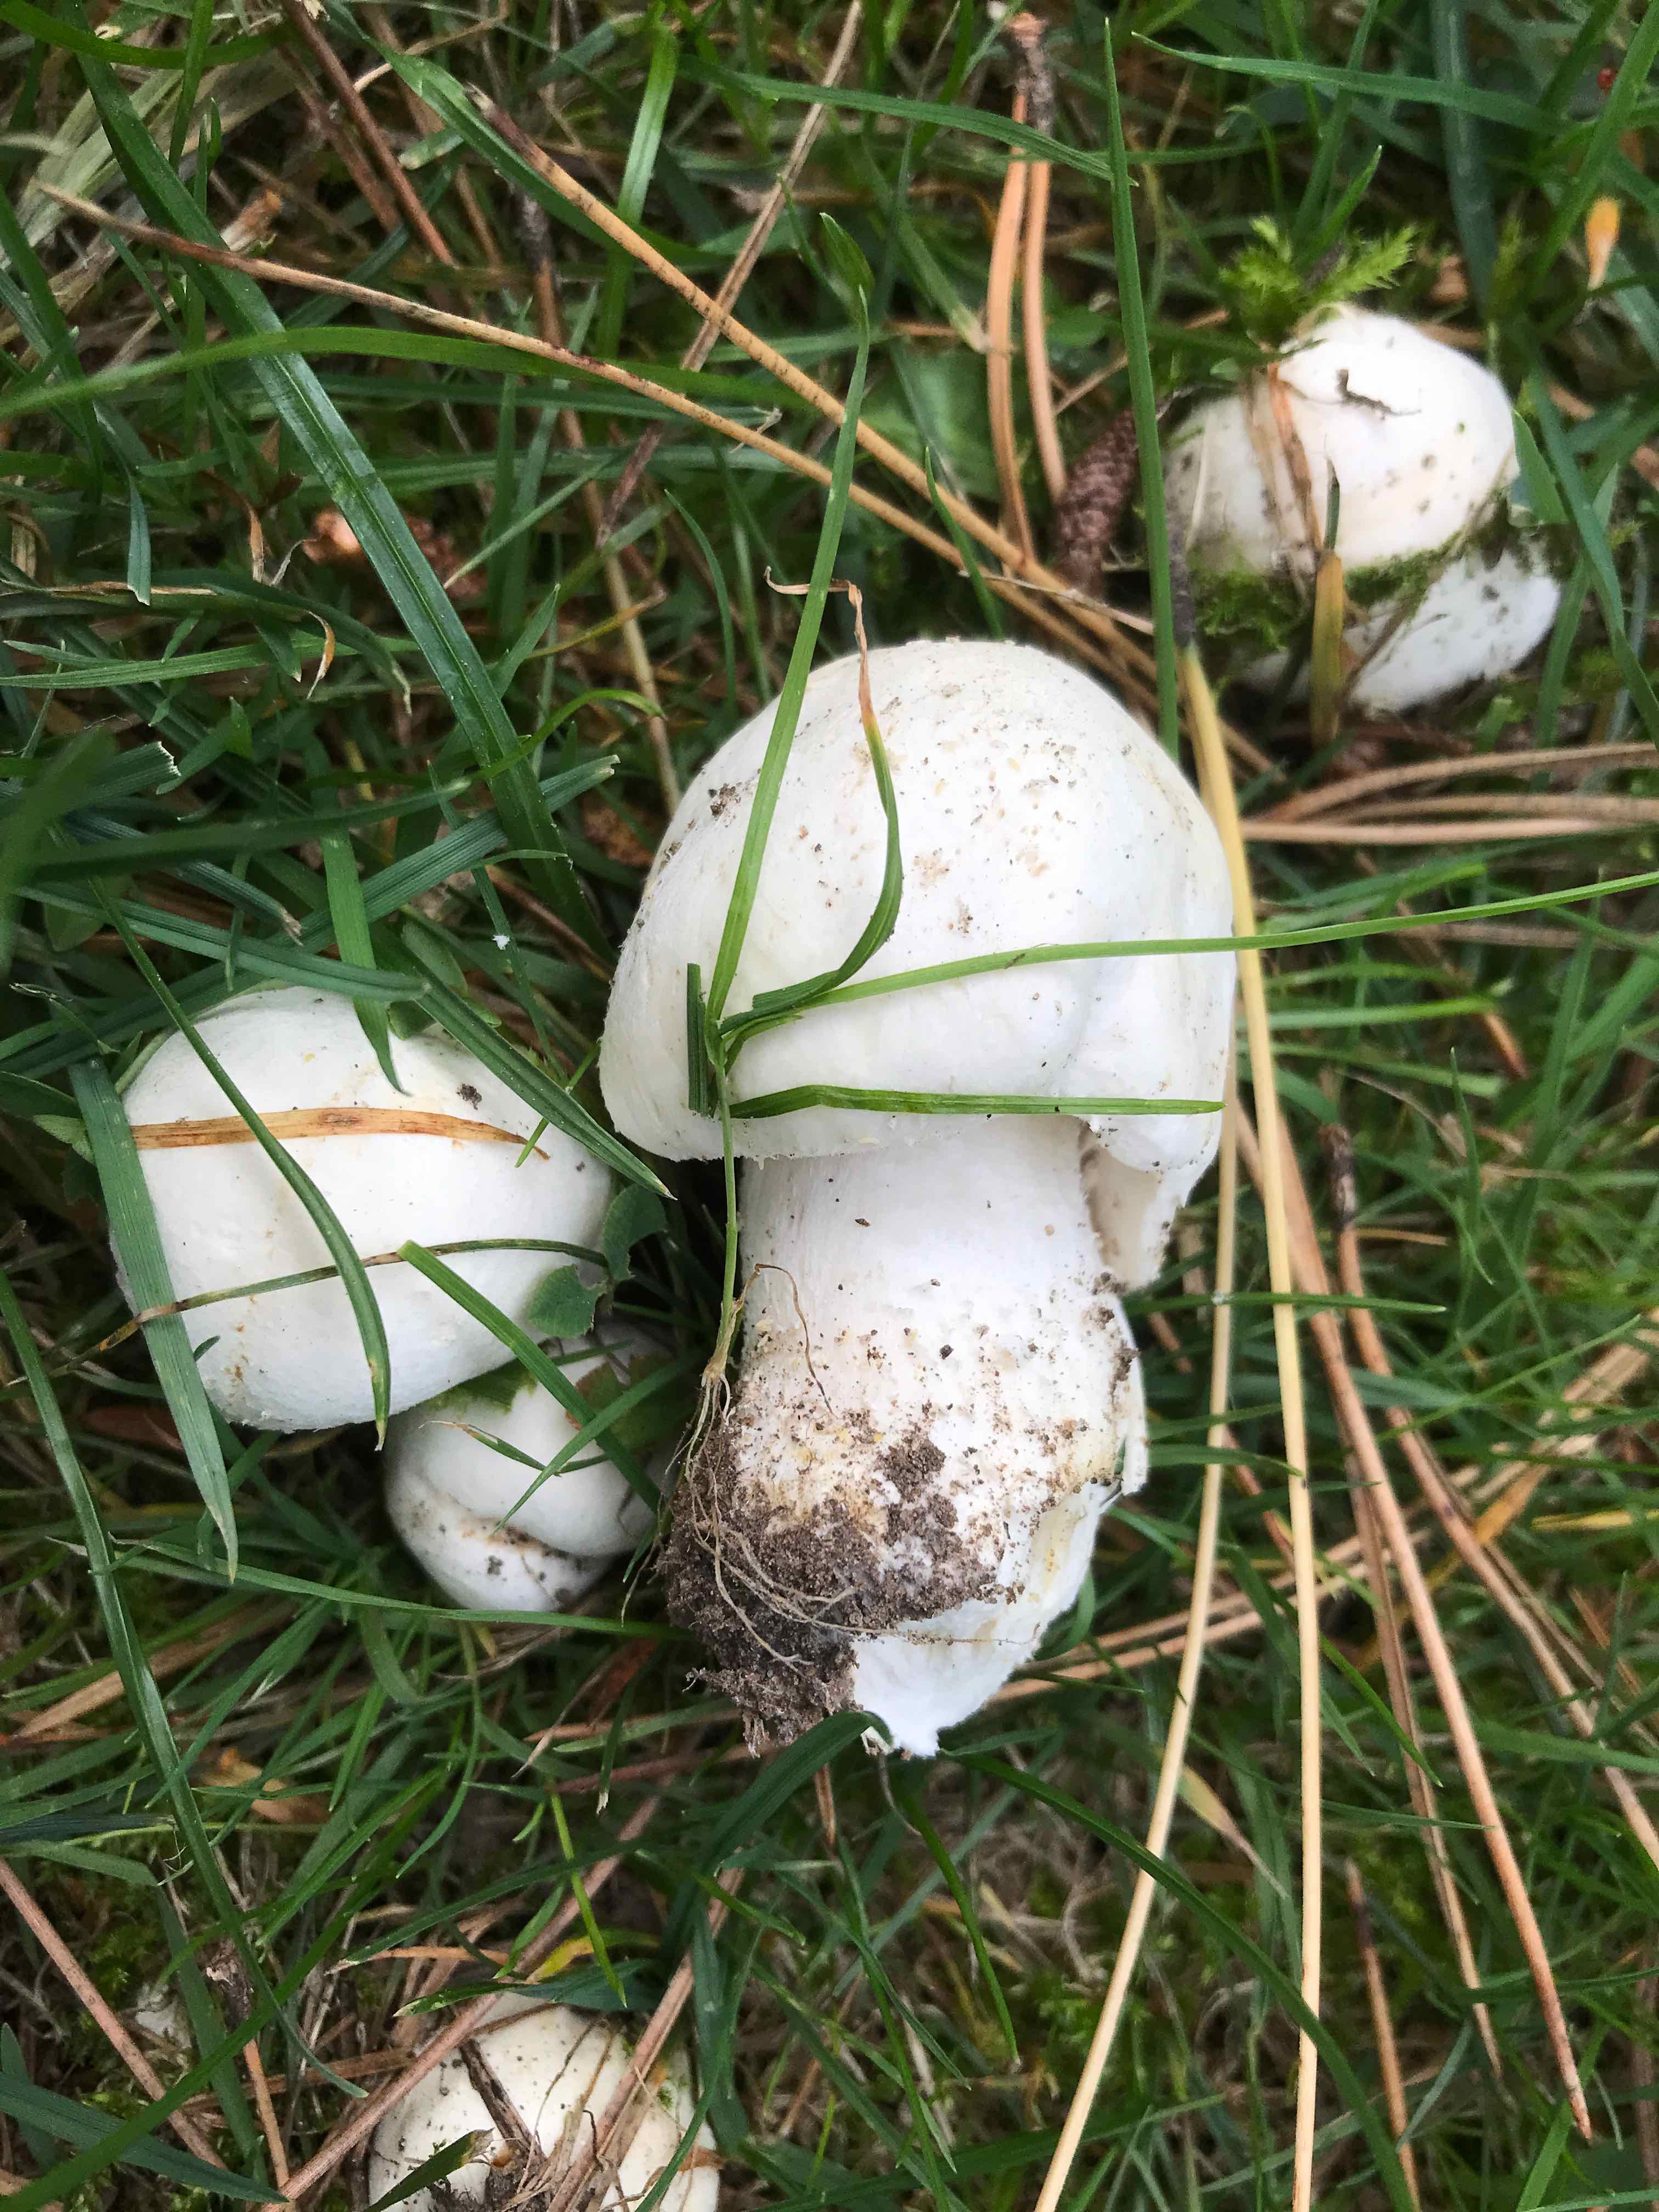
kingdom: Fungi
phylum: Basidiomycota
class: Agaricomycetes
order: Agaricales
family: Agaricaceae
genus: Agaricus
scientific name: Agaricus arvensis
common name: ager-champignon
